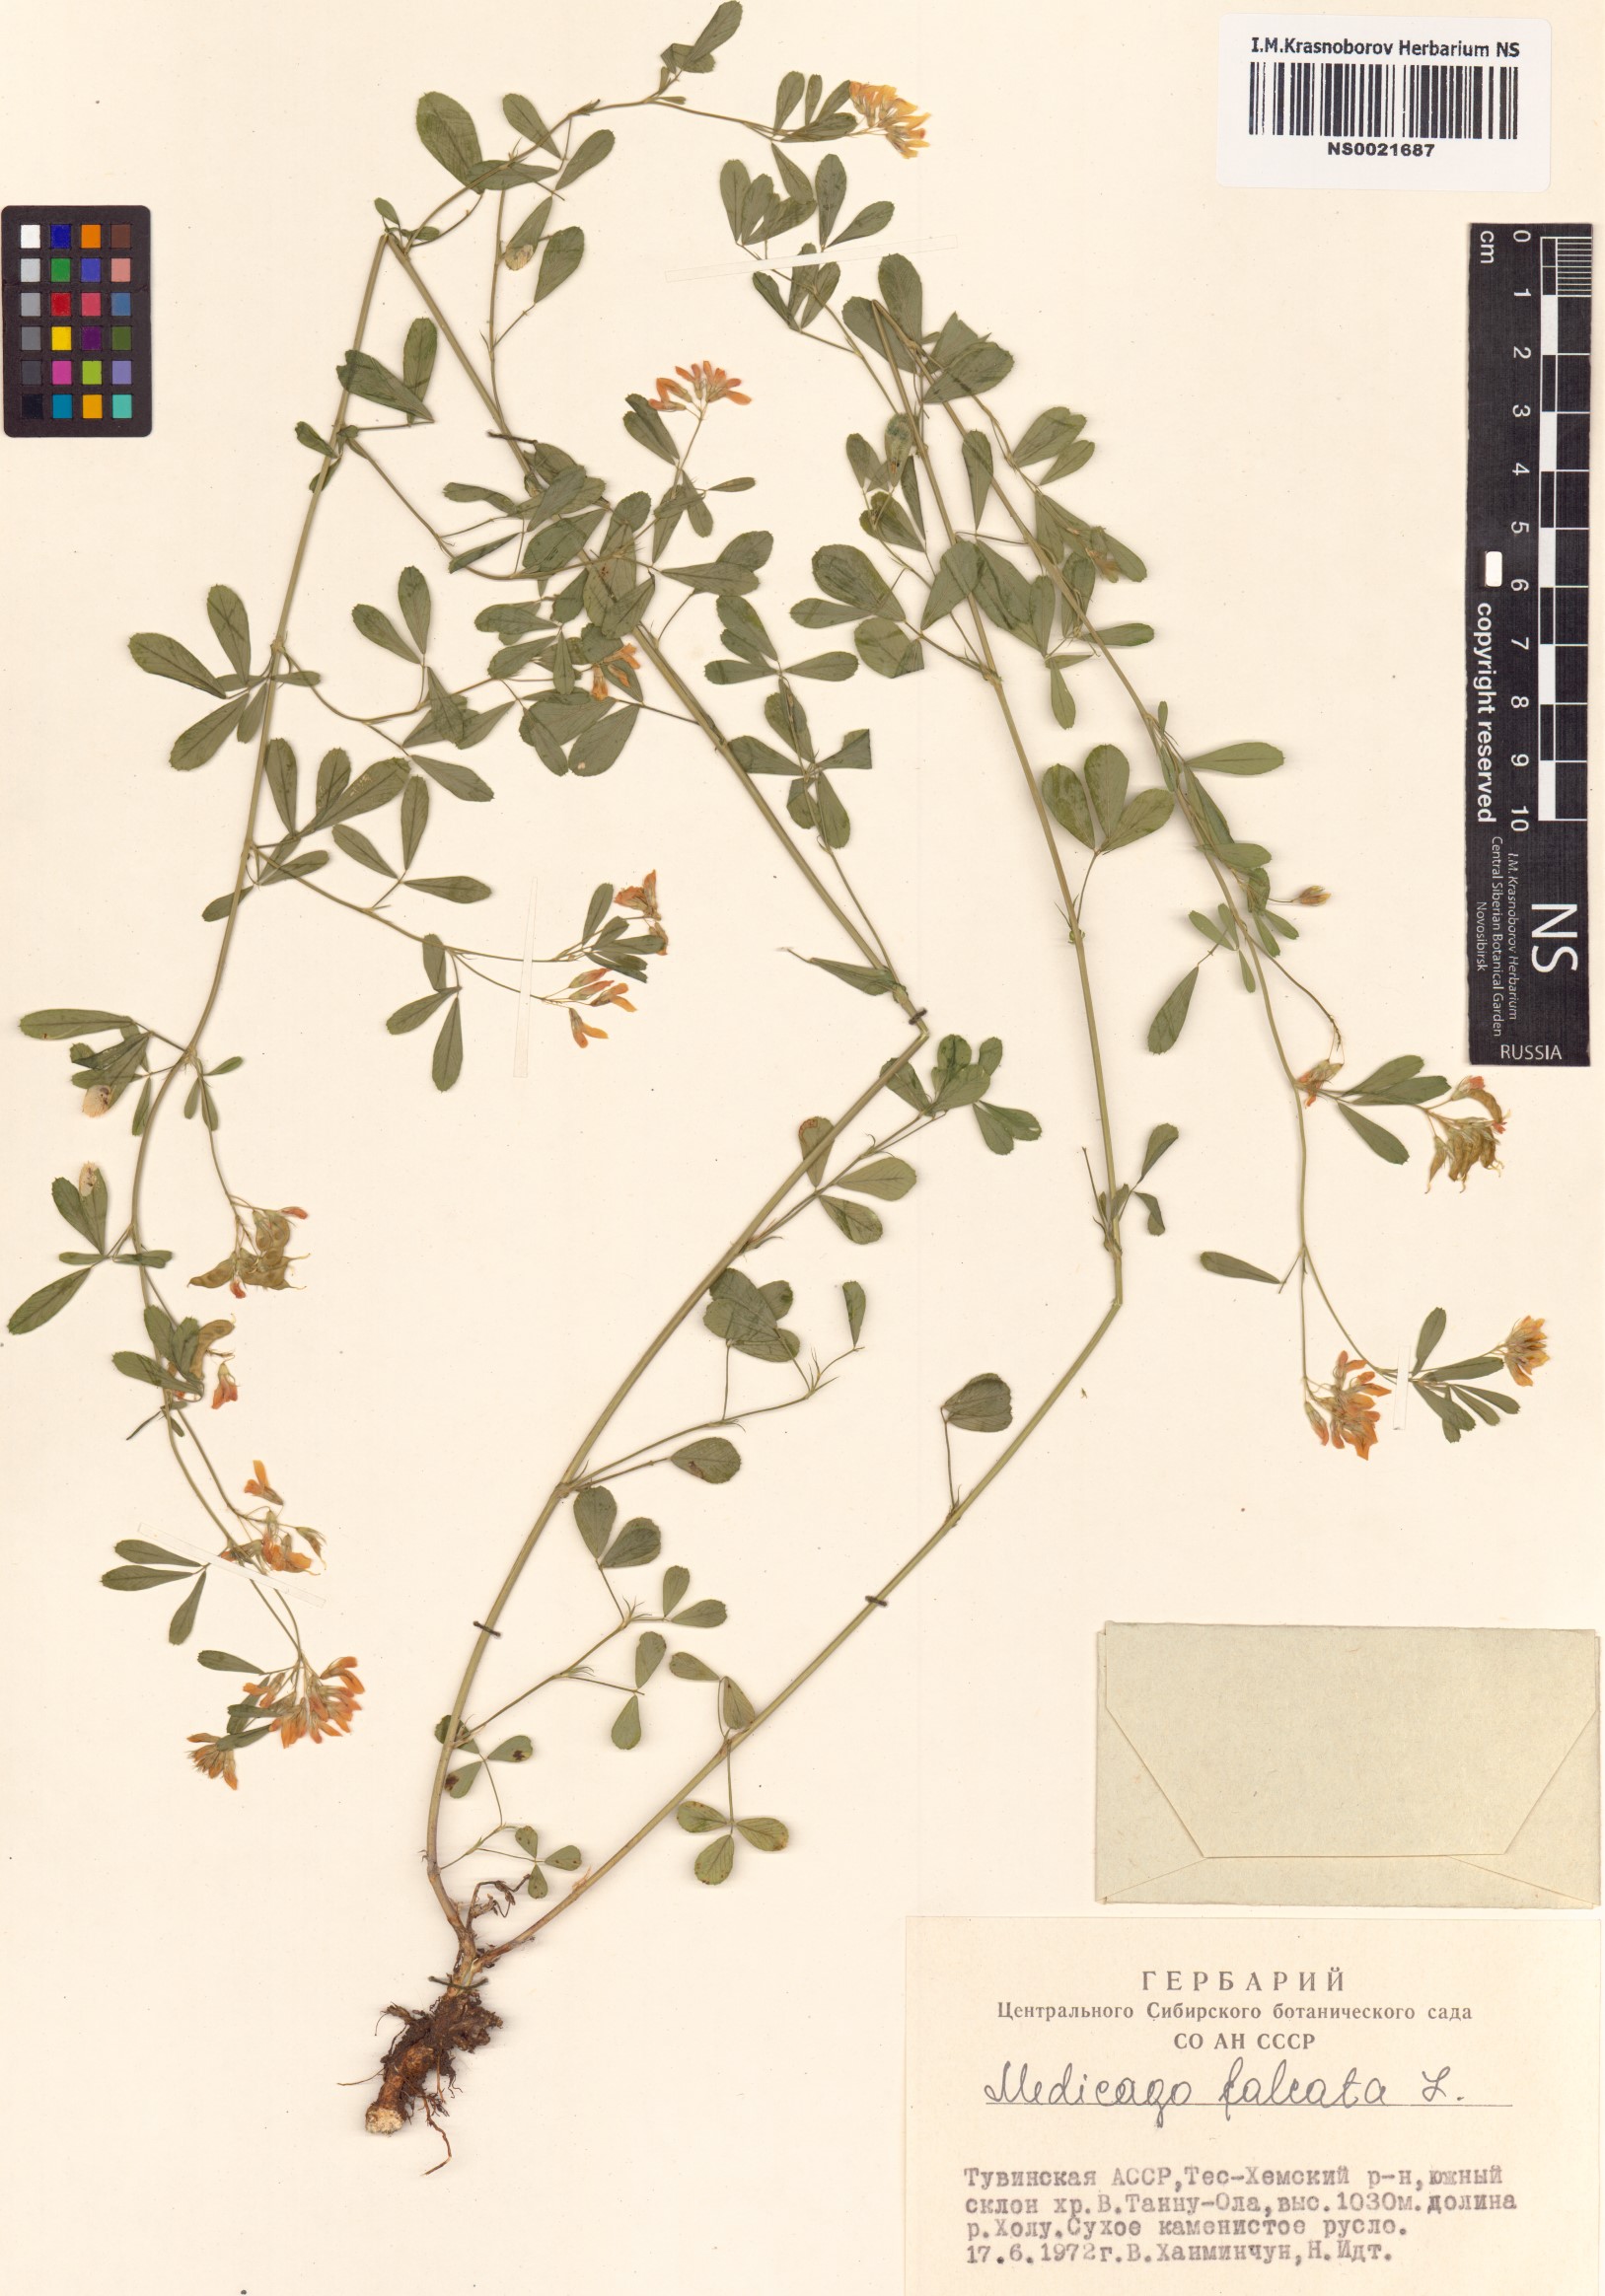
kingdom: Plantae
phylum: Tracheophyta
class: Magnoliopsida
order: Fabales
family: Fabaceae
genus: Medicago
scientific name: Medicago falcata
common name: Sickle medick
